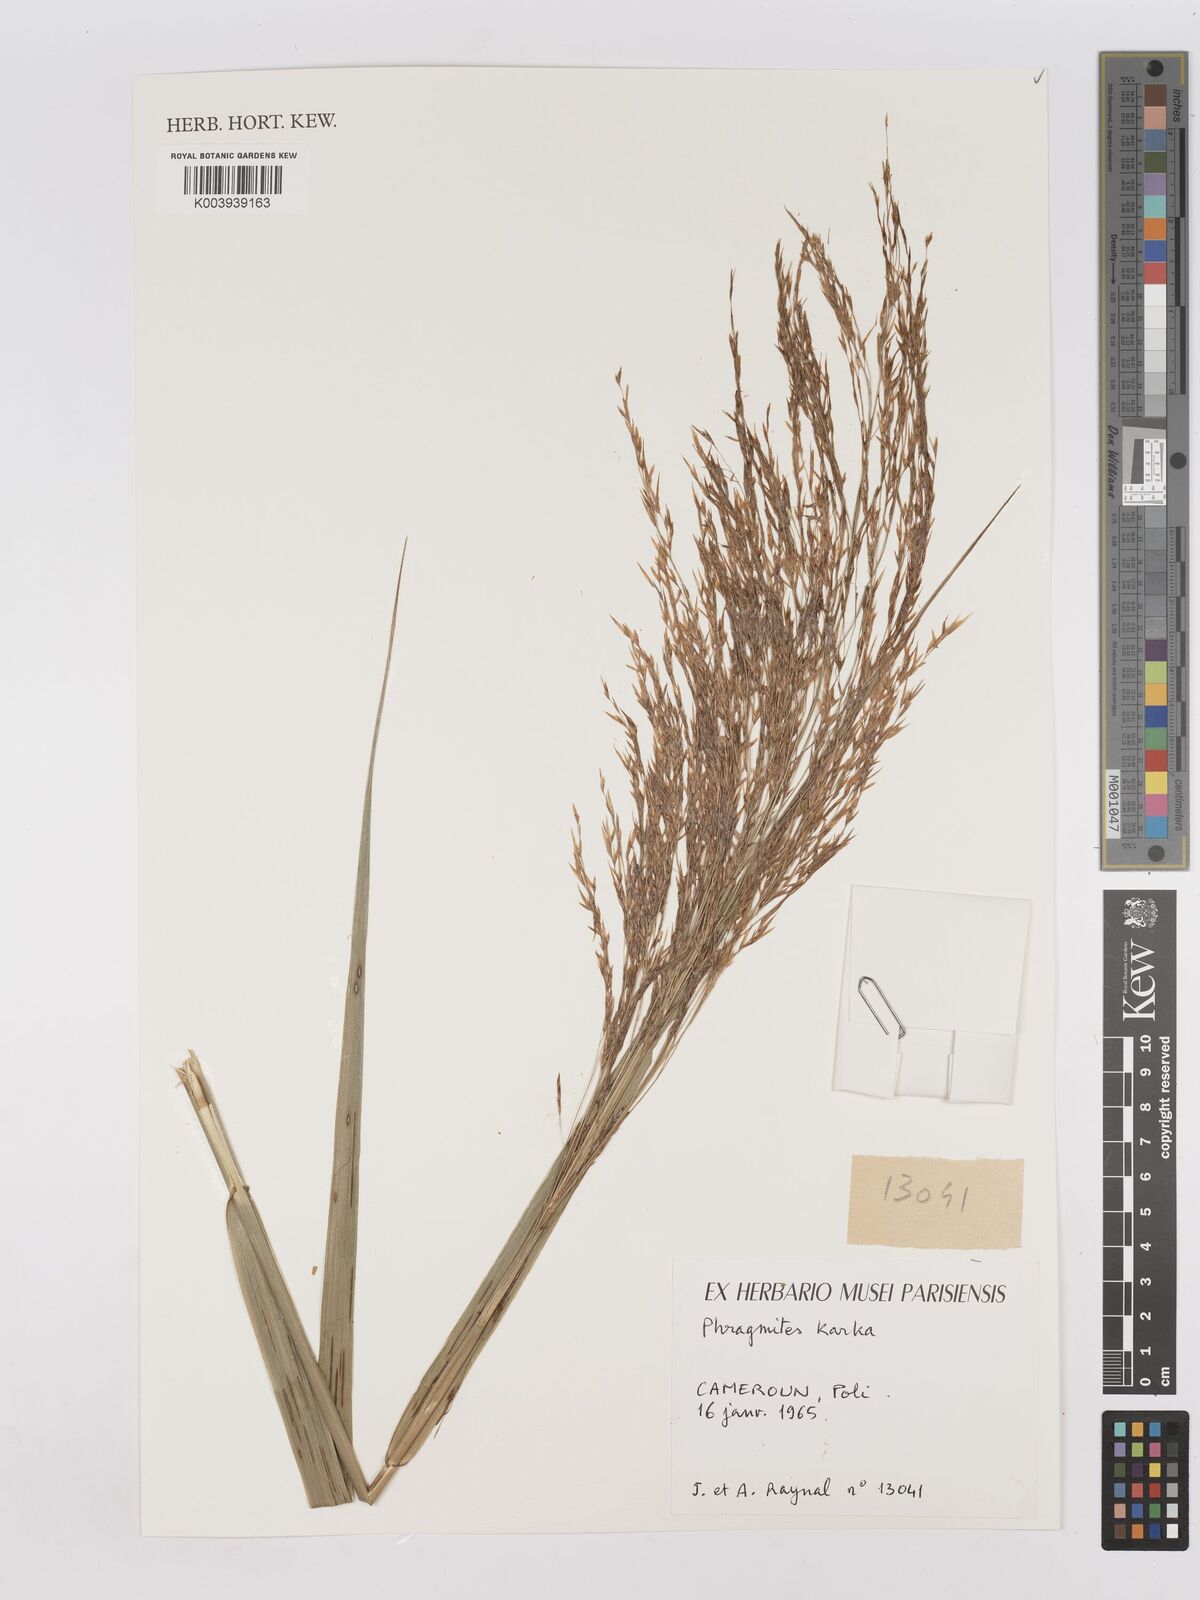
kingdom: Plantae
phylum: Tracheophyta
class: Liliopsida
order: Poales
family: Poaceae
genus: Phragmites
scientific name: Phragmites australis
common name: Common reed
